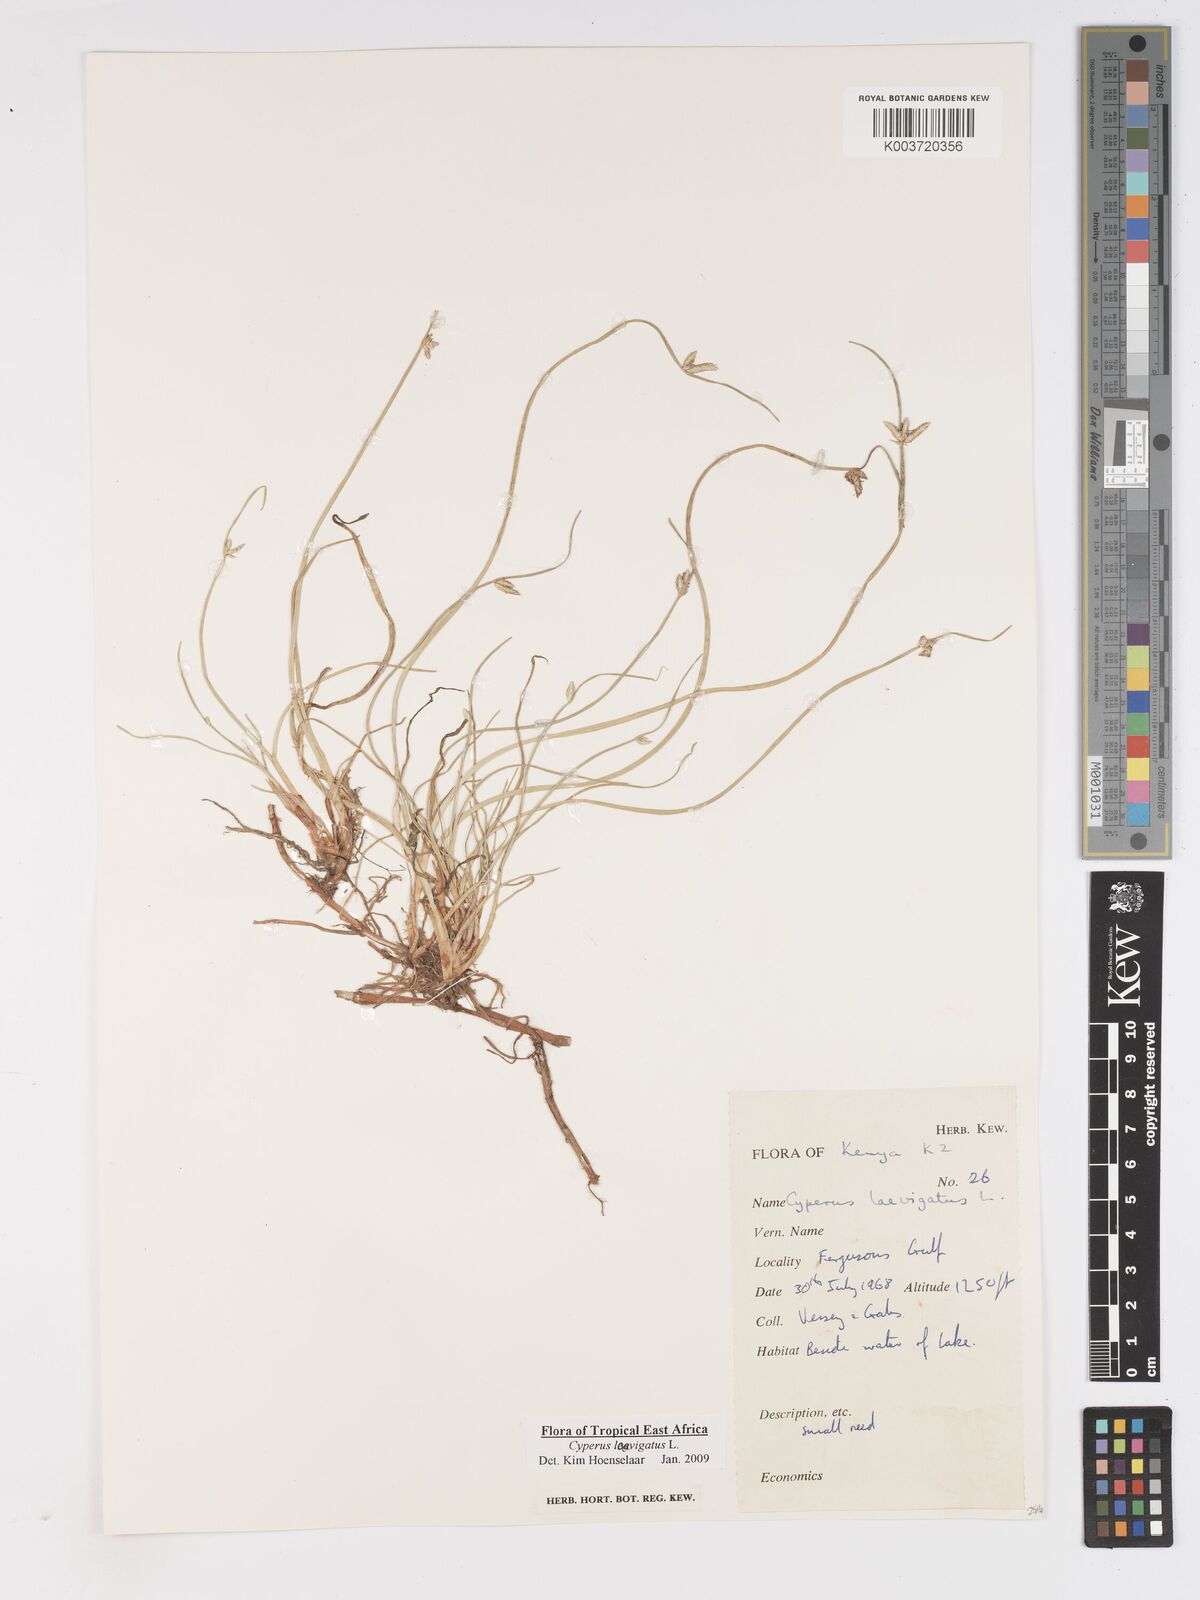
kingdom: Plantae
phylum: Tracheophyta
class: Liliopsida
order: Poales
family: Cyperaceae
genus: Cyperus
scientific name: Cyperus laevigatus
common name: Smooth flat sedge
